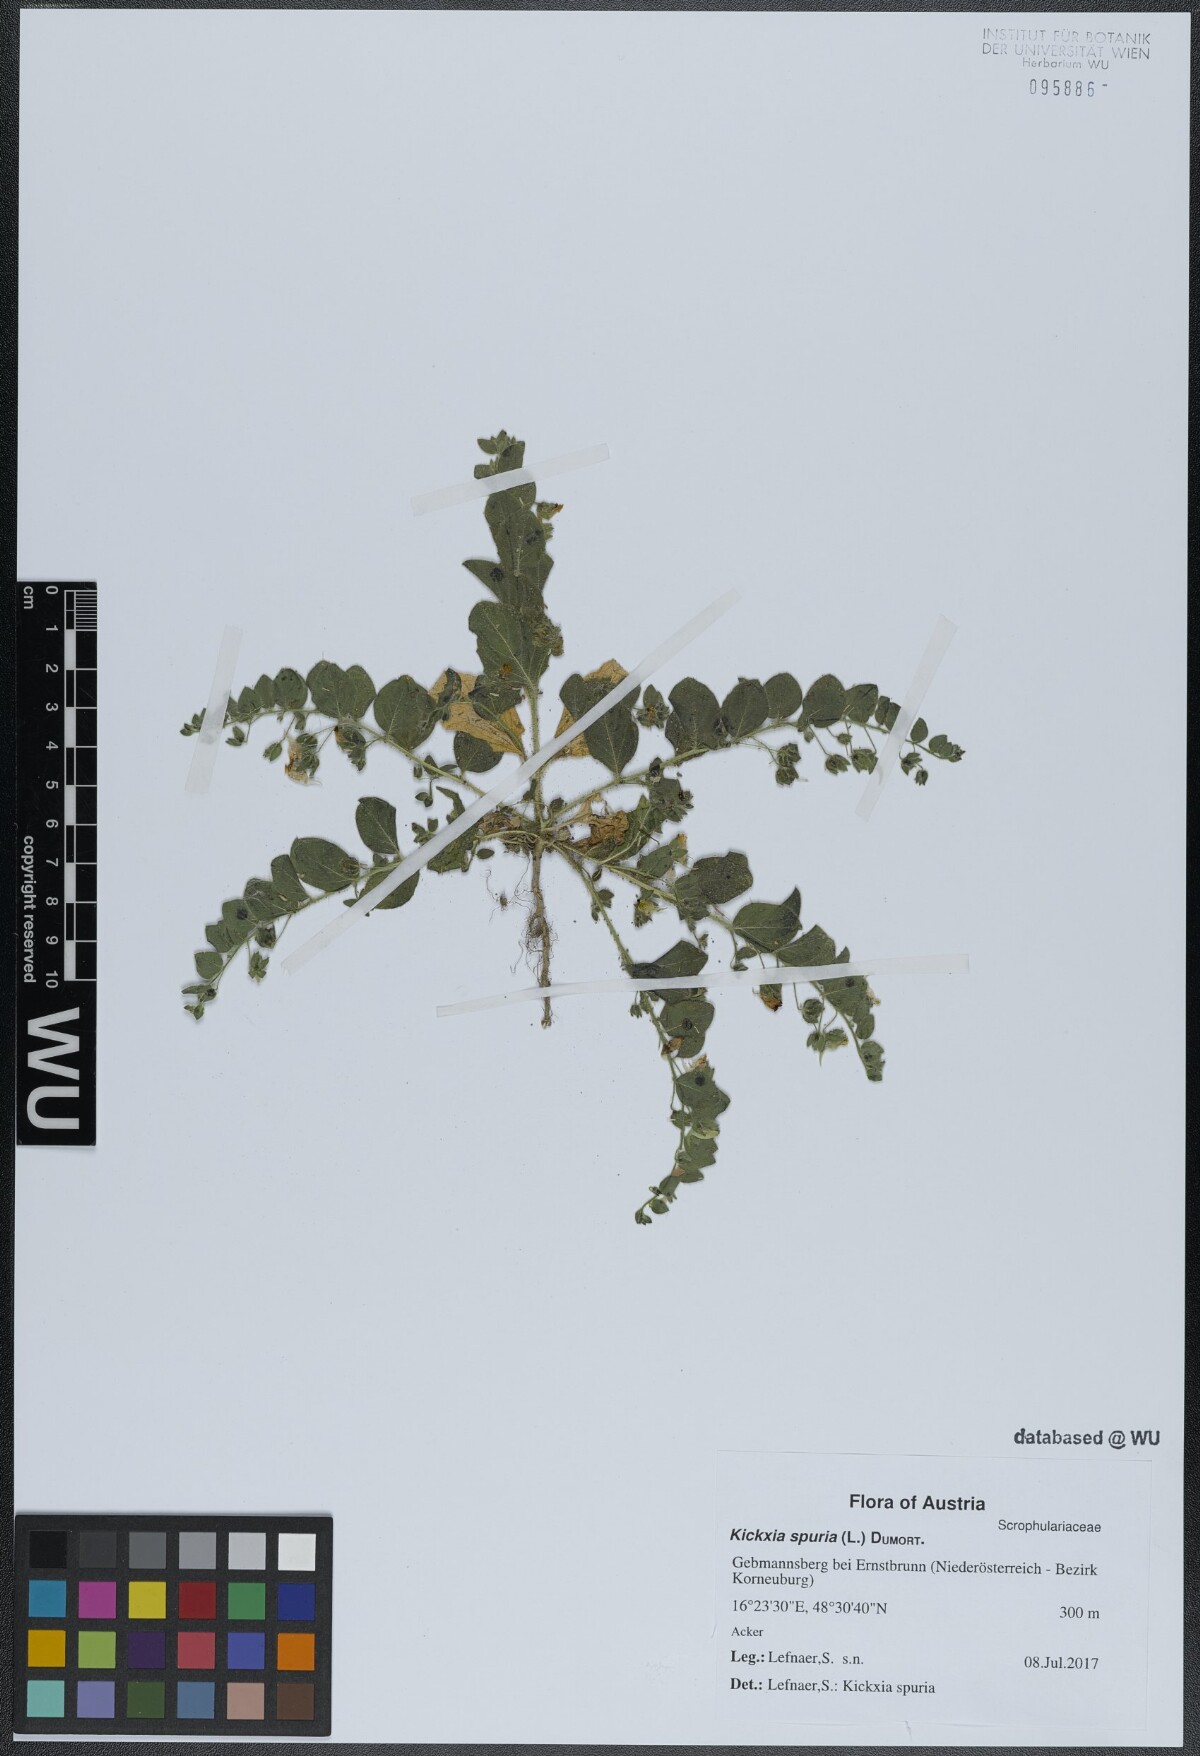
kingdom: Plantae
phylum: Tracheophyta
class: Magnoliopsida
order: Lamiales
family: Plantaginaceae
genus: Kickxia
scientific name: Kickxia spuria
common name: Round-leaved fluellen
